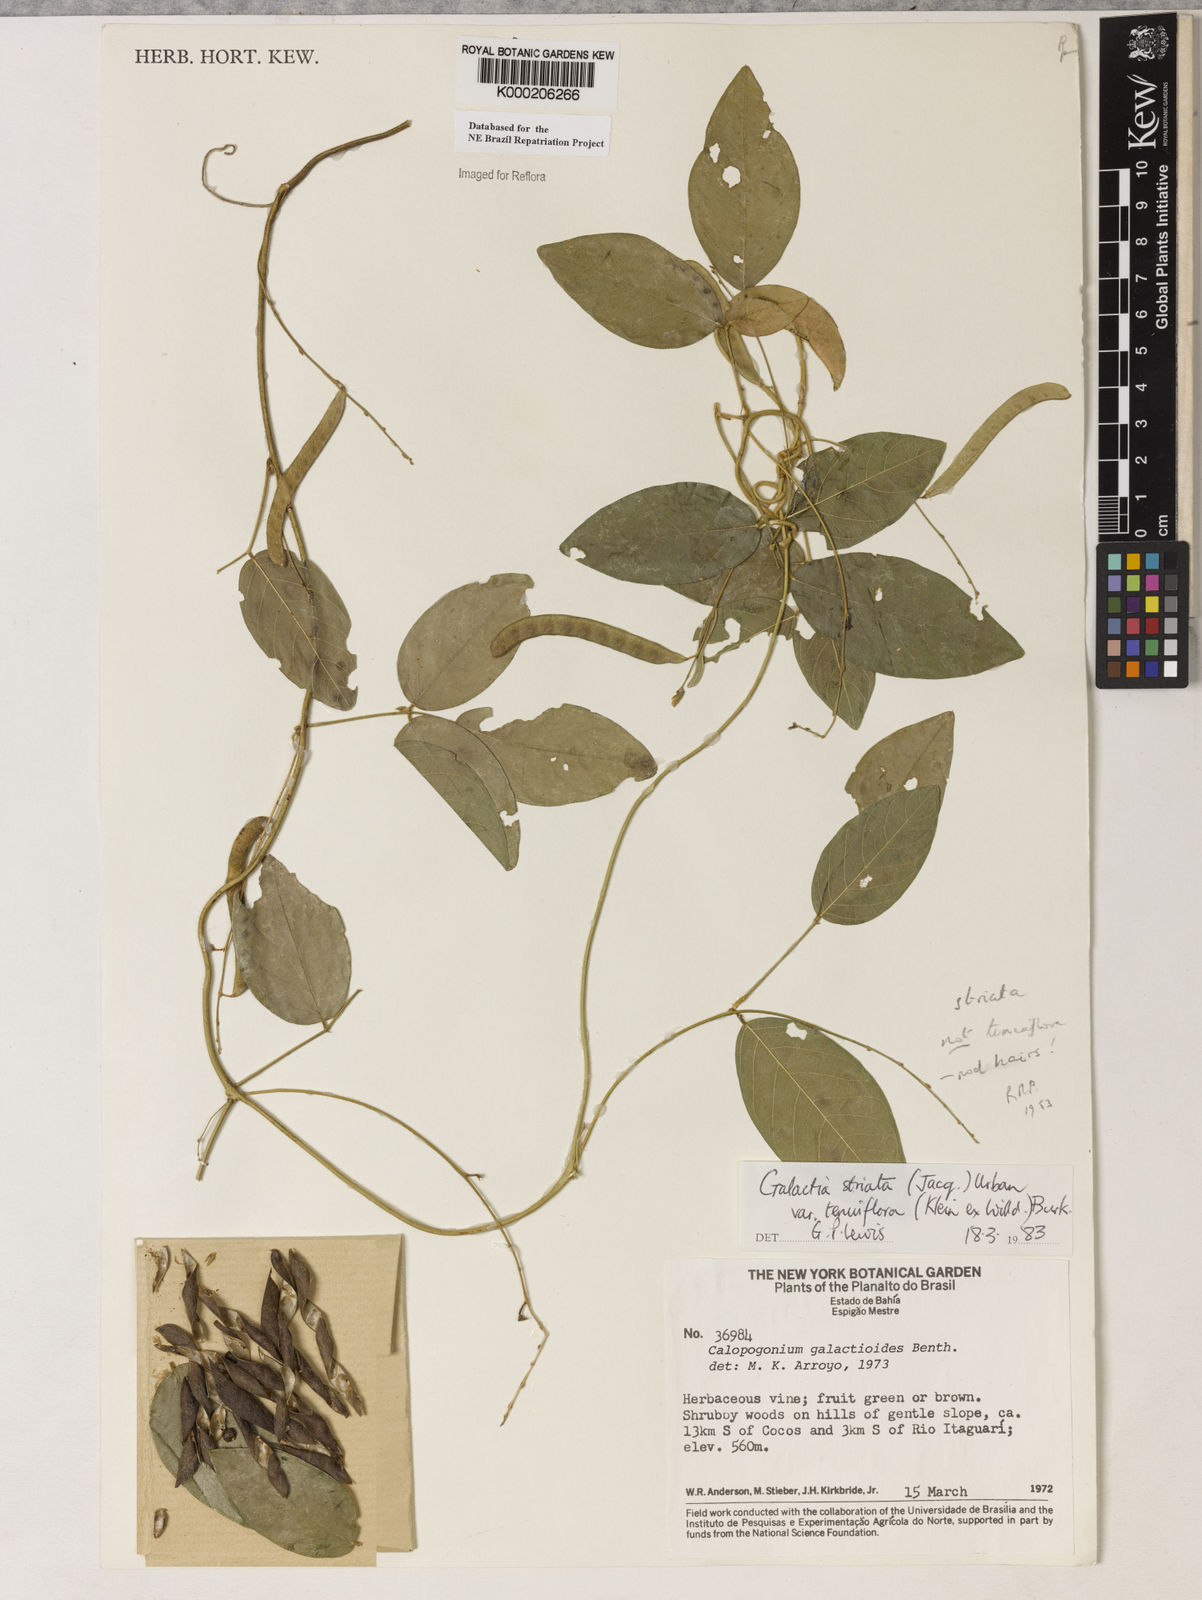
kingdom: Plantae
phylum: Tracheophyta
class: Magnoliopsida
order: Fabales
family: Fabaceae
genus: Galactia
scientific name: Galactia striata
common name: Florida hammock milkpea
